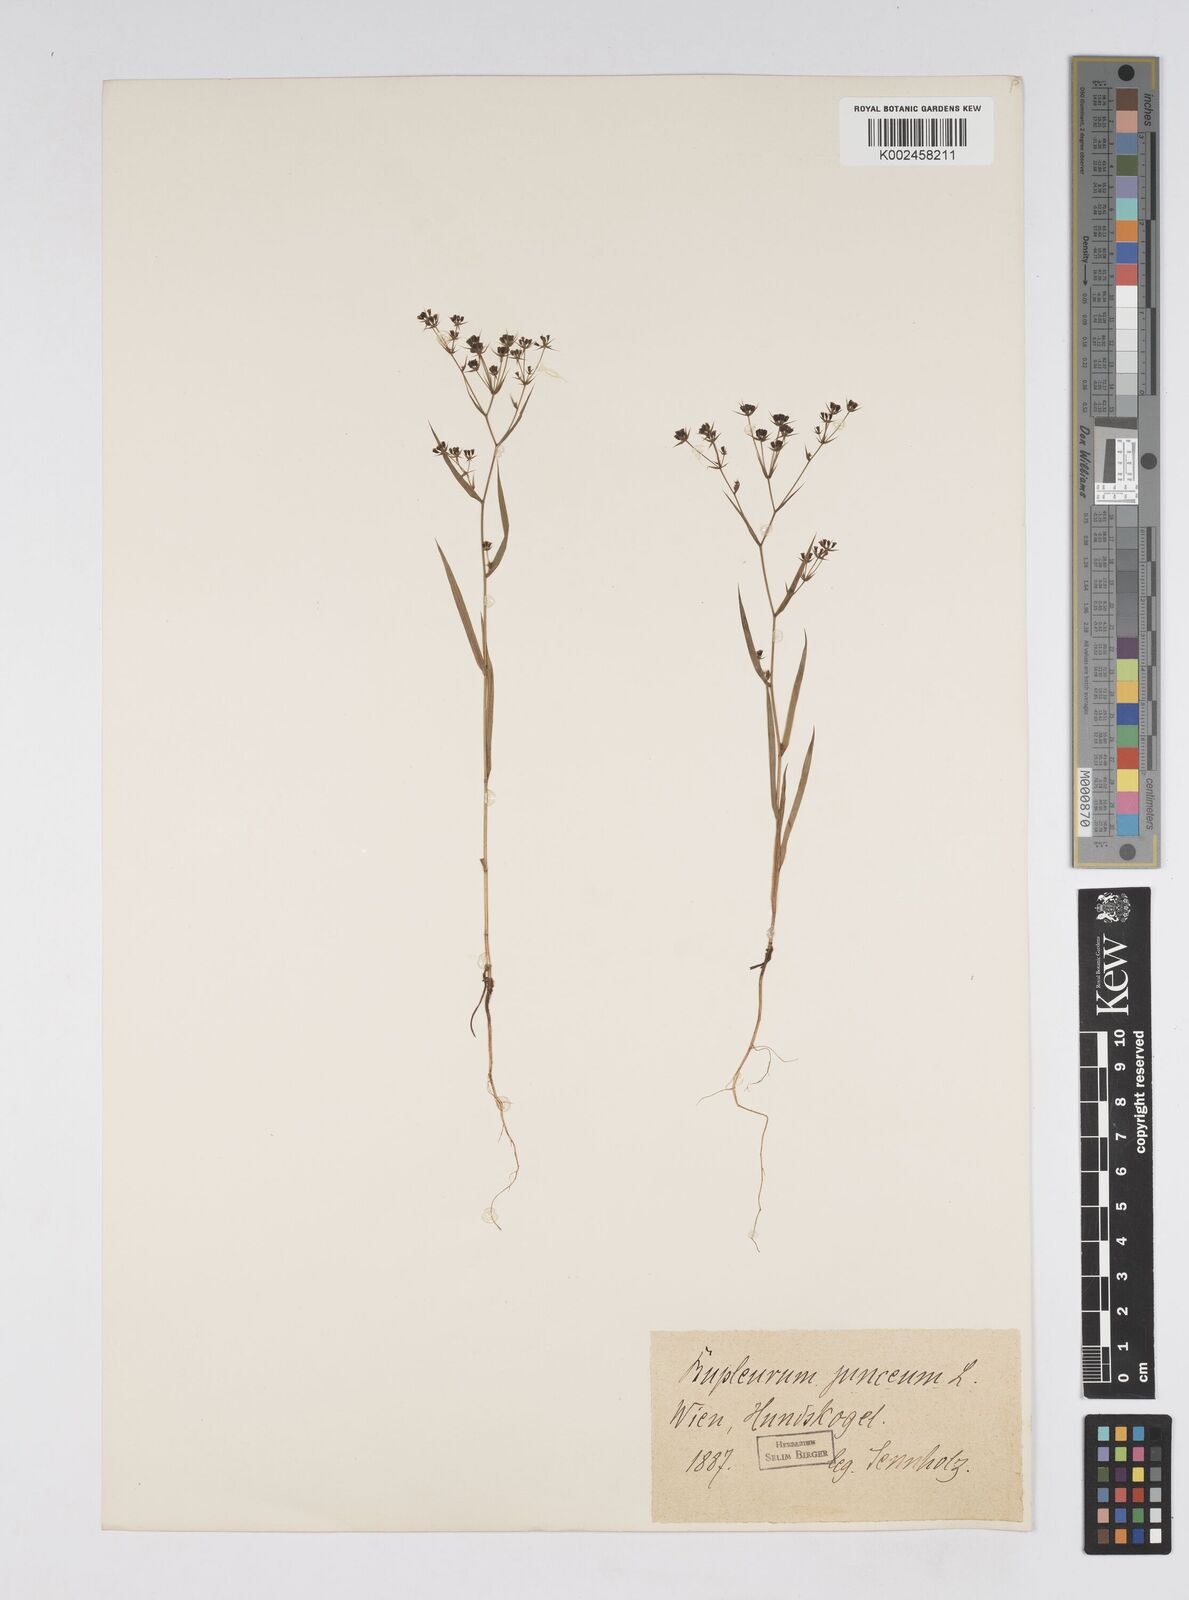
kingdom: Plantae
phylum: Tracheophyta
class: Magnoliopsida
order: Apiales
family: Apiaceae
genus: Bupleurum
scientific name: Bupleurum praealtum
